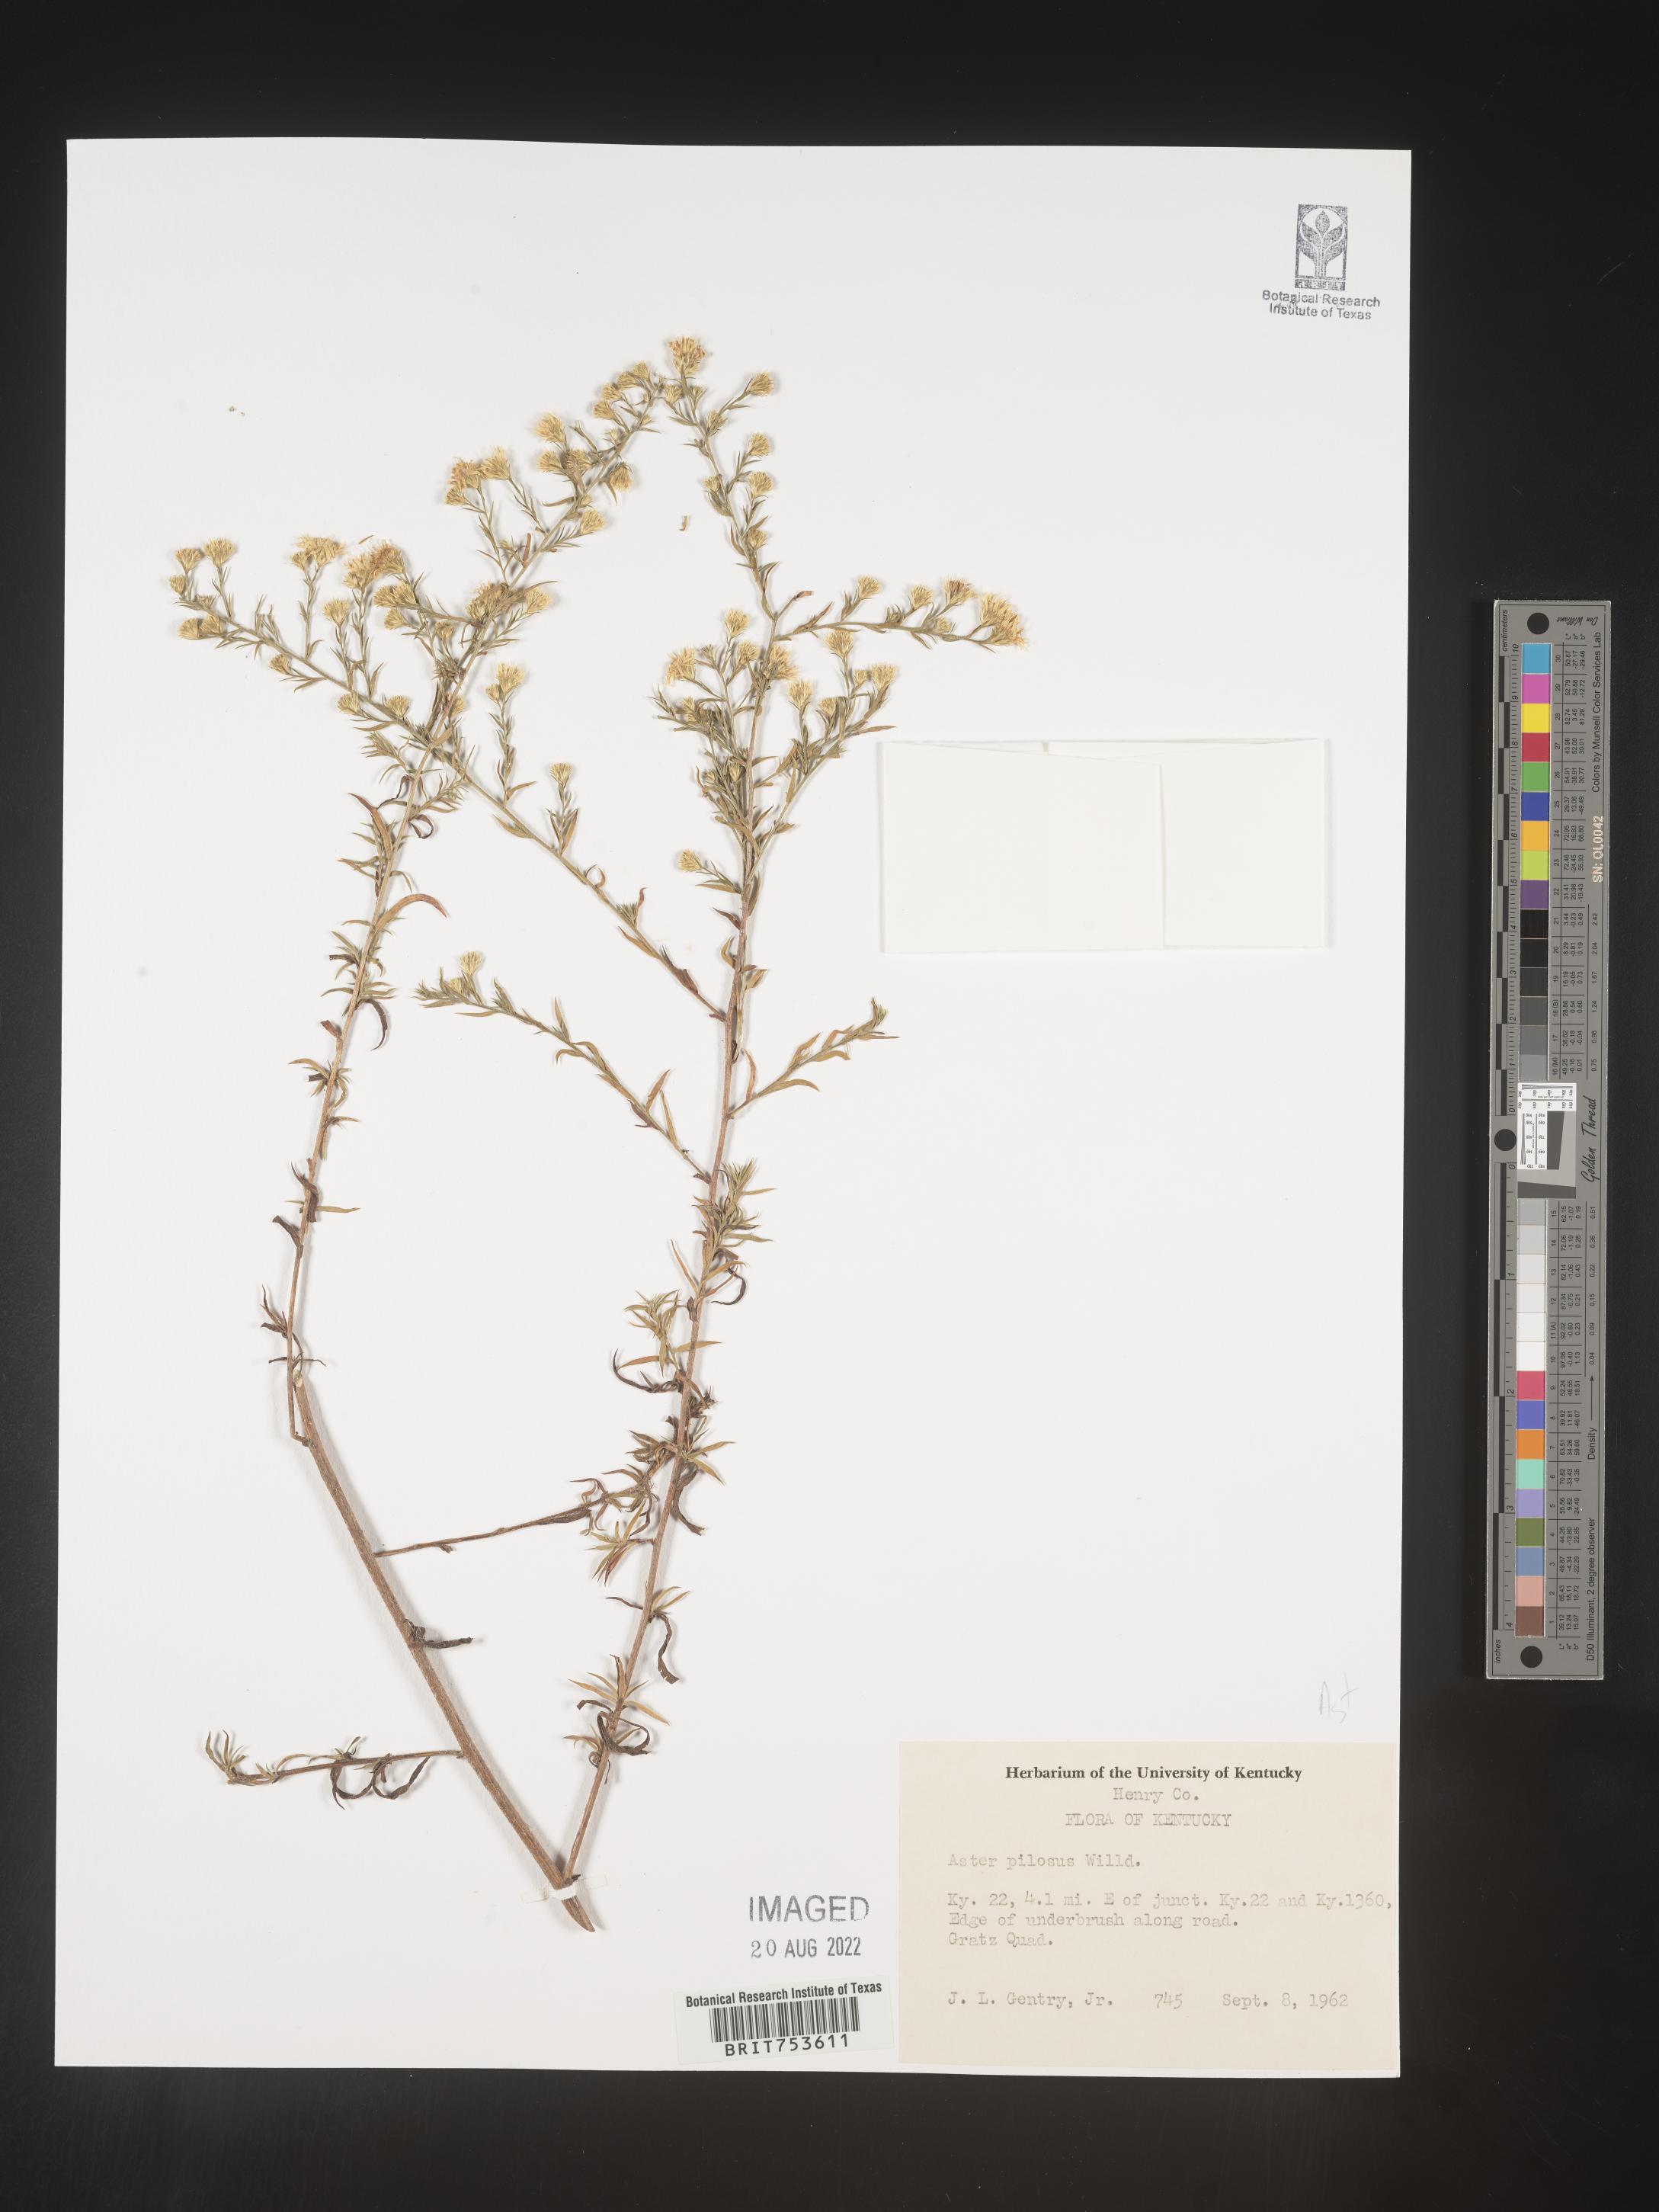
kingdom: Plantae
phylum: Tracheophyta
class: Magnoliopsida
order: Asterales
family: Asteraceae
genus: Symphyotrichum
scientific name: Symphyotrichum pilosum
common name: Awl aster
